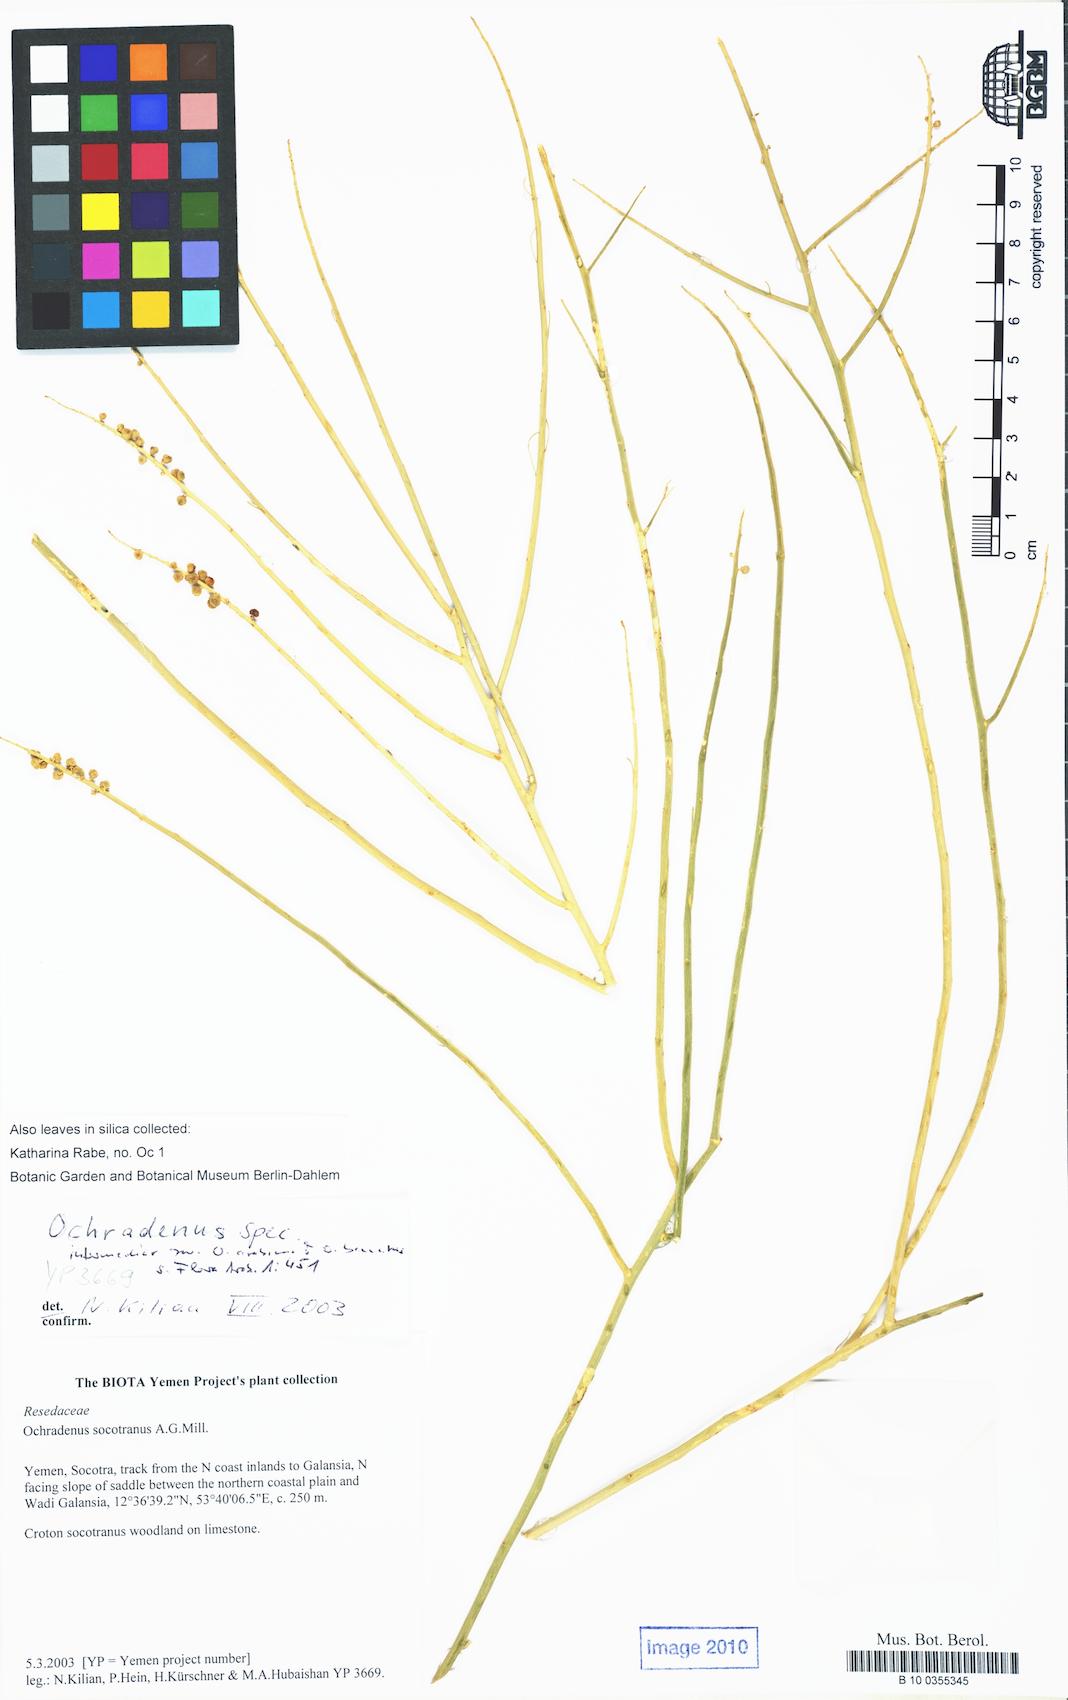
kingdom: Plantae
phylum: Tracheophyta
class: Magnoliopsida
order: Brassicales
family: Resedaceae
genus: Ochradenus
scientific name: Ochradenus
